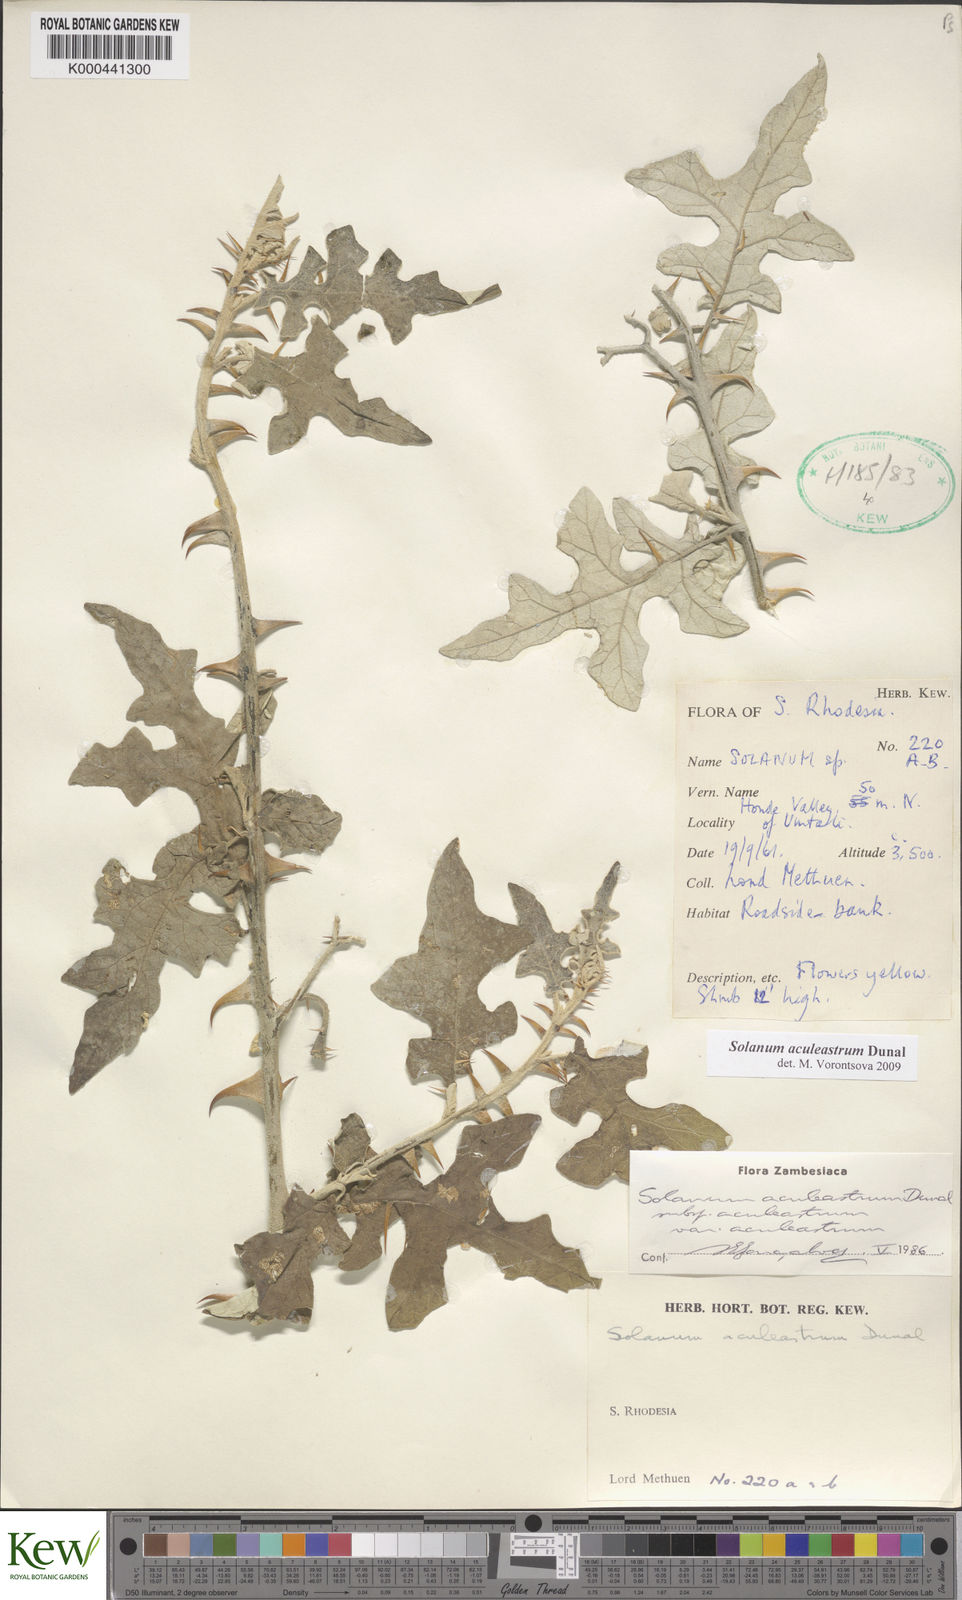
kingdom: Plantae
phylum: Tracheophyta
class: Magnoliopsida
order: Solanales
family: Solanaceae
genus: Solanum
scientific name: Solanum aculeastrum
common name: Goat bitter-apple
